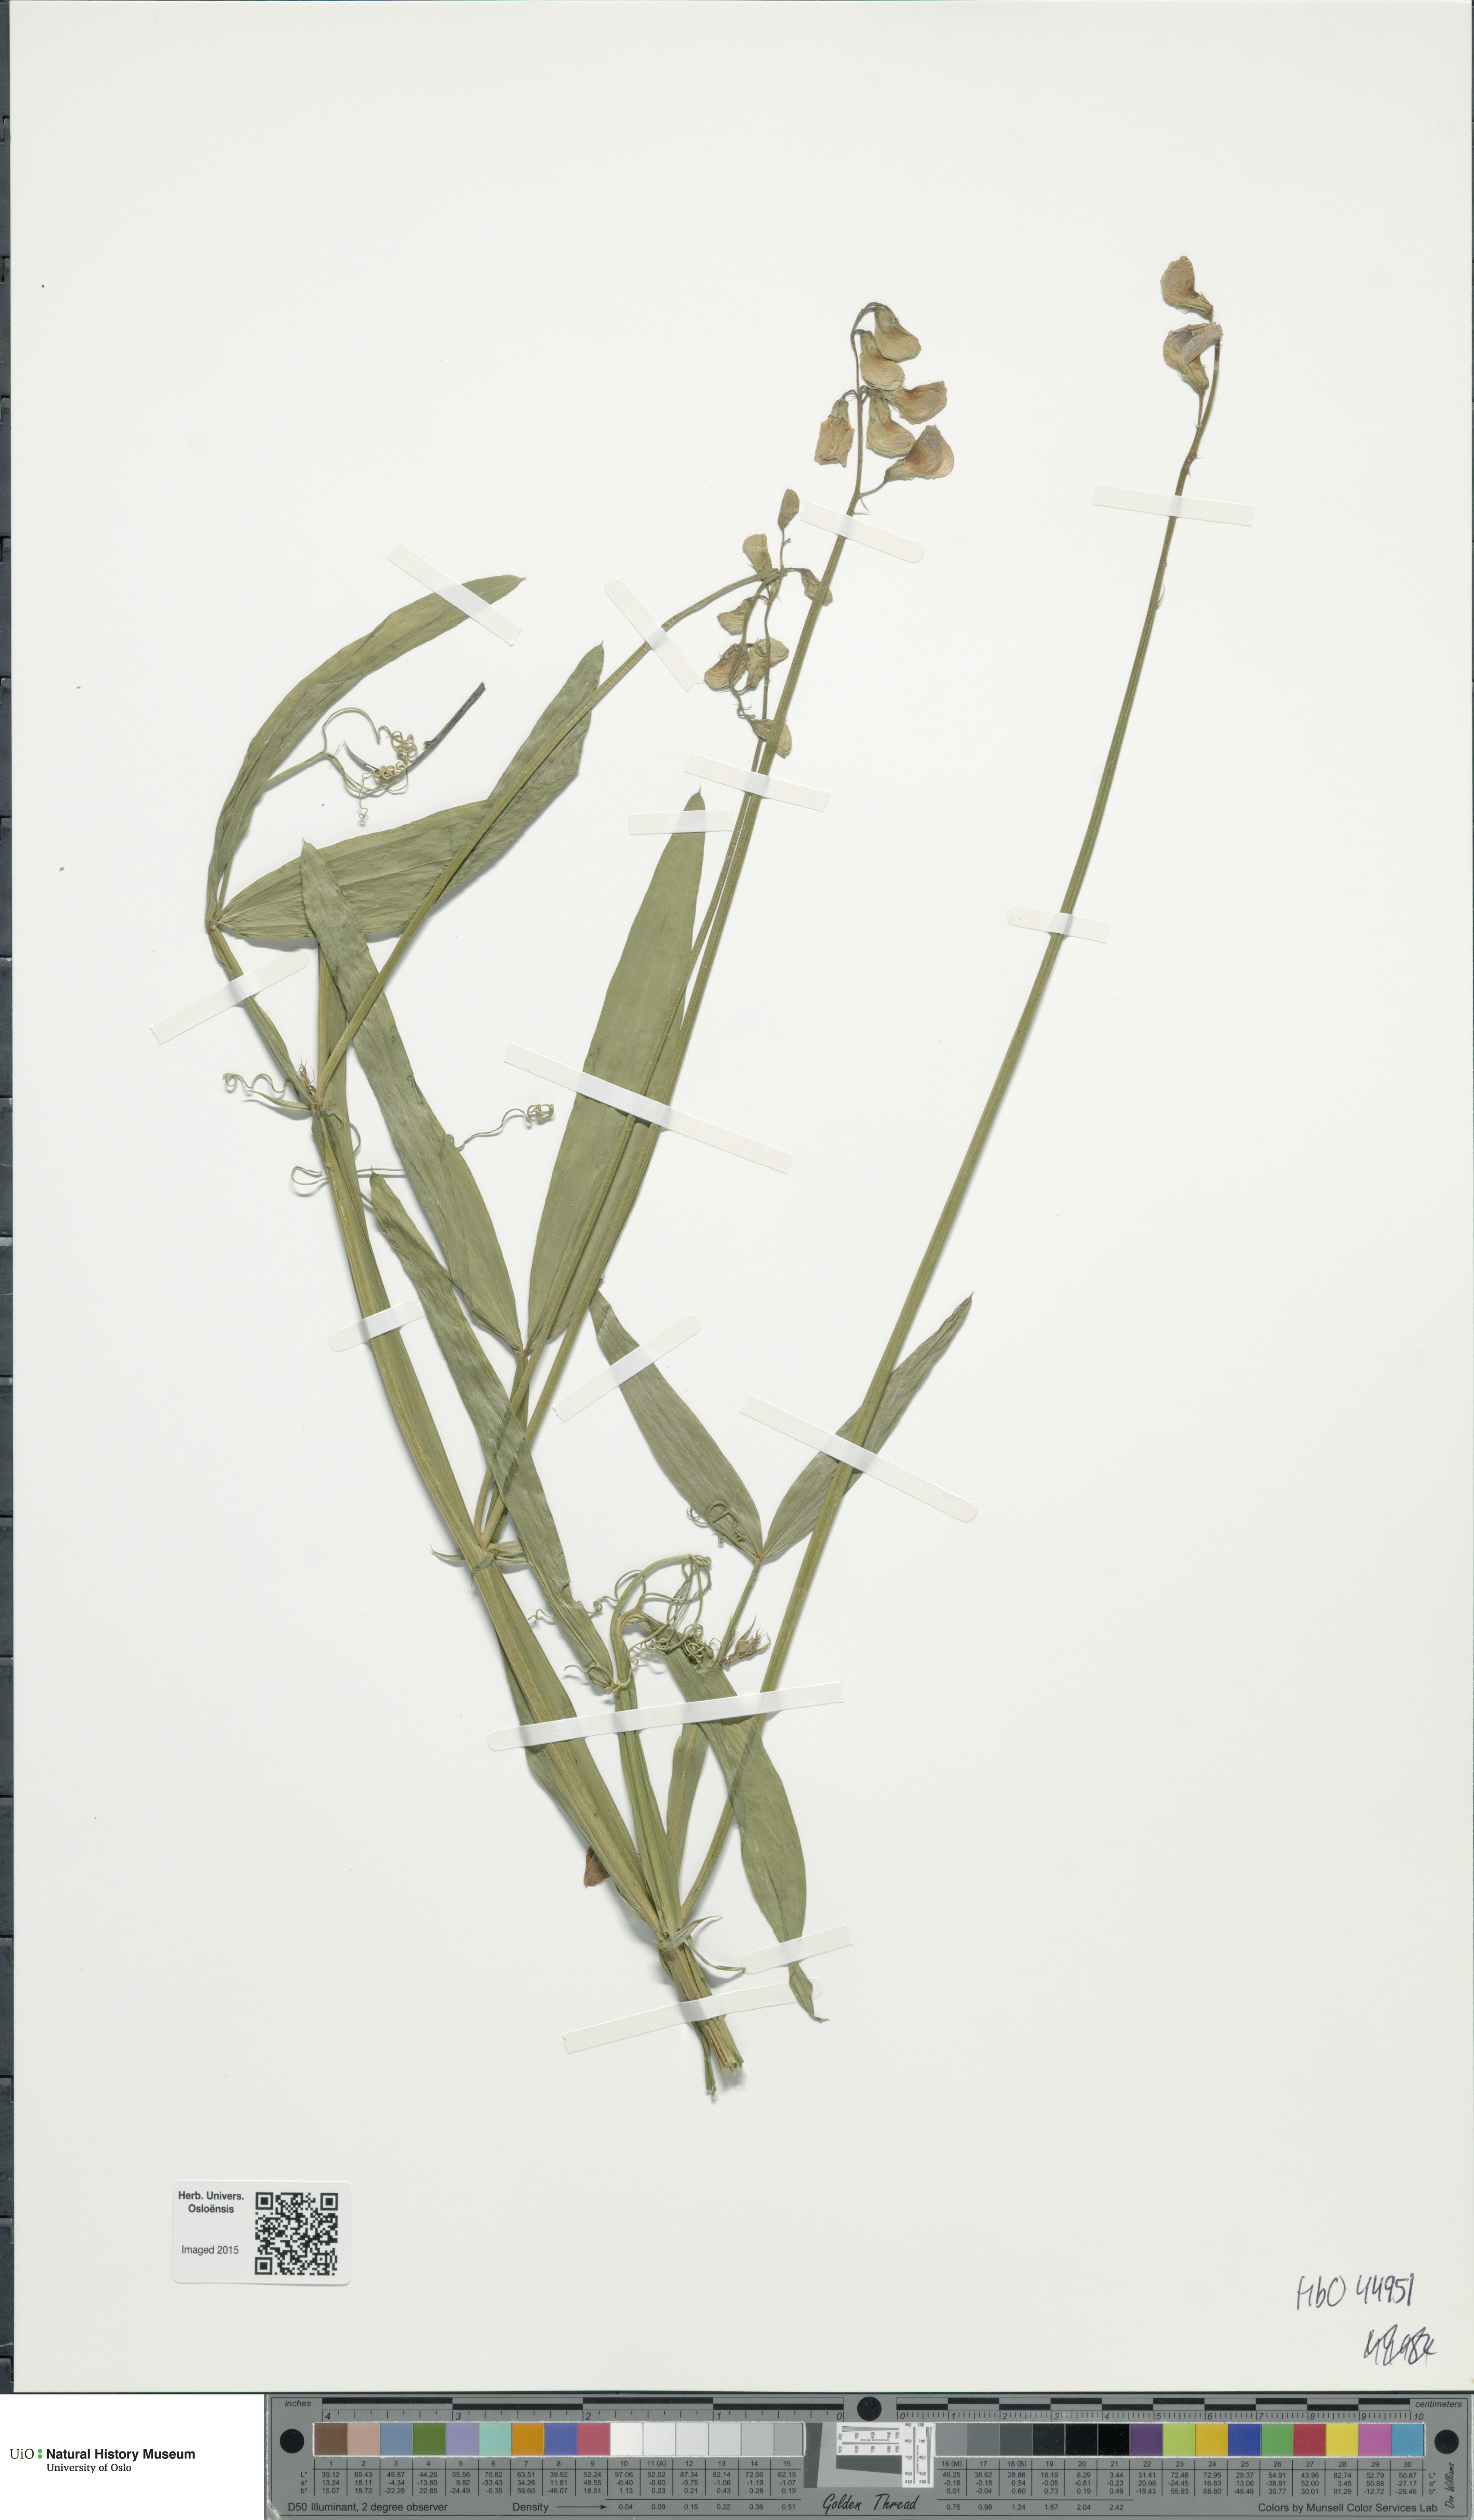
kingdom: Plantae
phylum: Tracheophyta
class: Magnoliopsida
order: Fabales
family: Fabaceae
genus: Lathyrus
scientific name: Lathyrus sylvestris
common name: Flat pea
